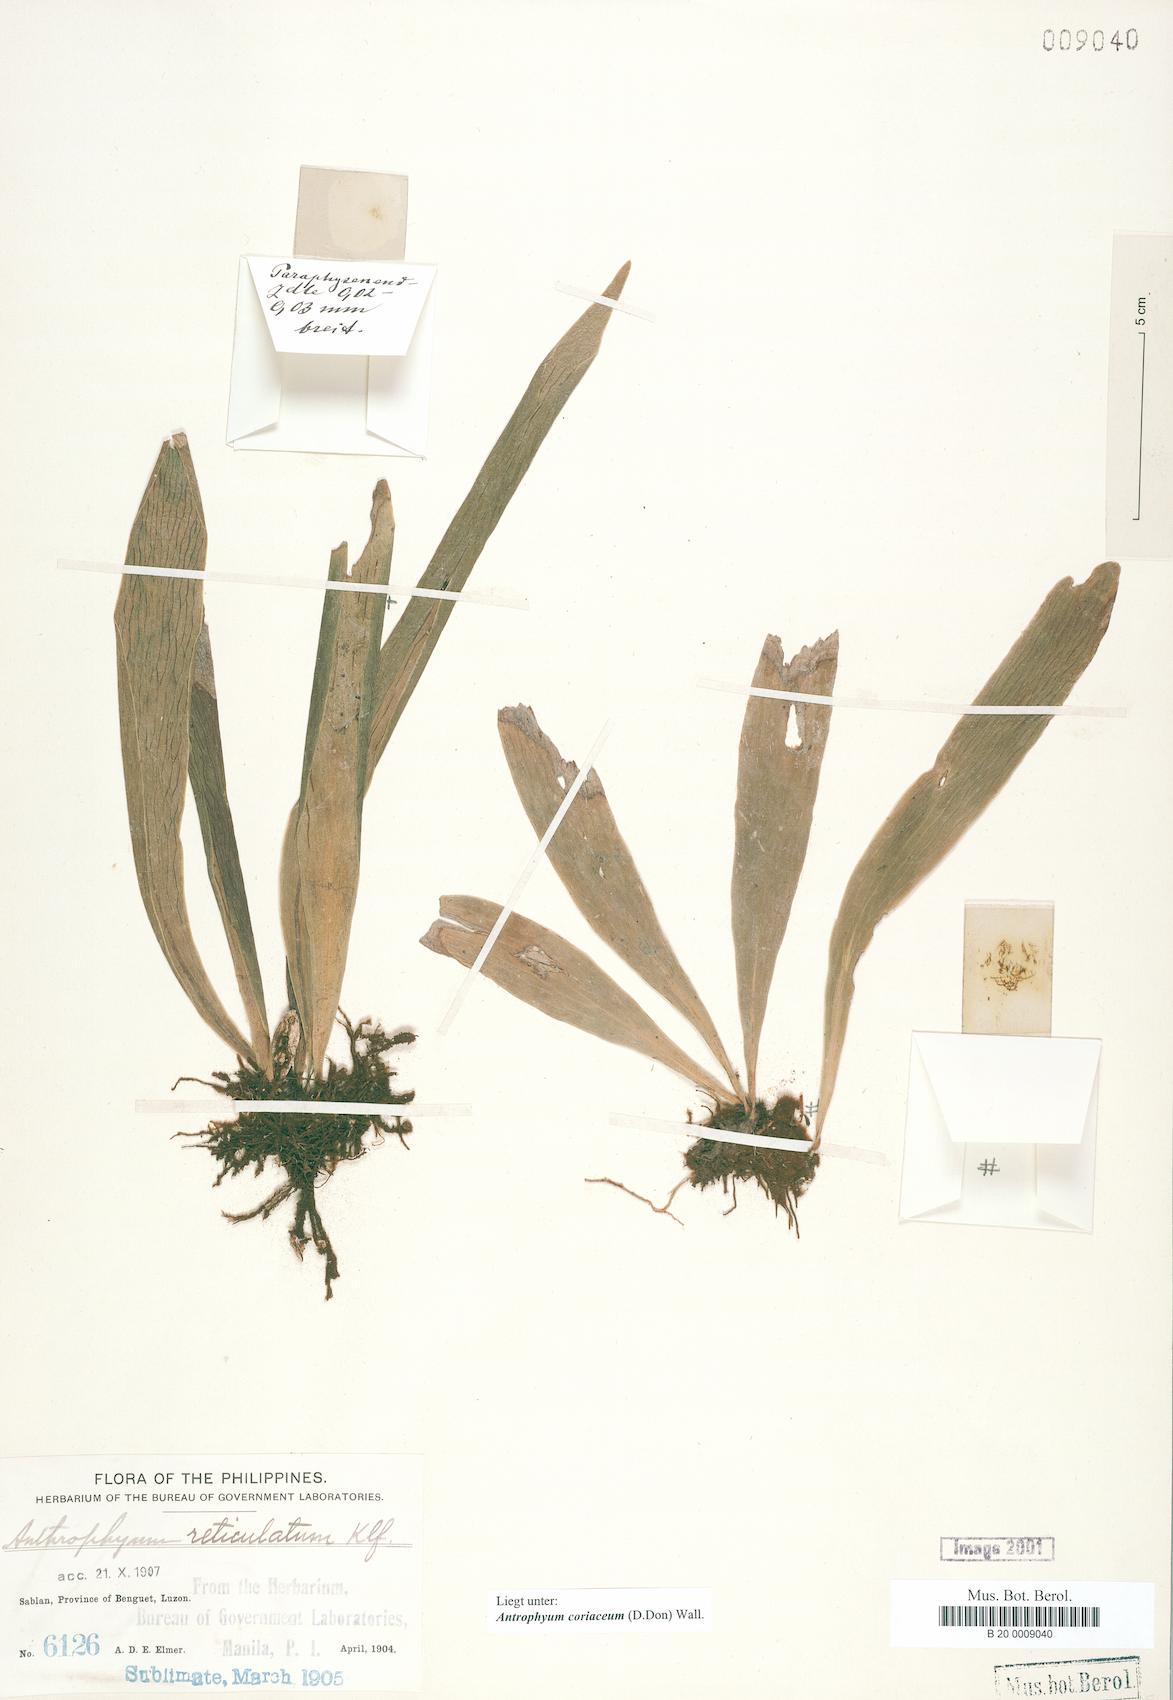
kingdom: Plantae
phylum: Tracheophyta
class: Polypodiopsida
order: Polypodiales
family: Pteridaceae
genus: Antrophyum
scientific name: Antrophyum reticulatum
